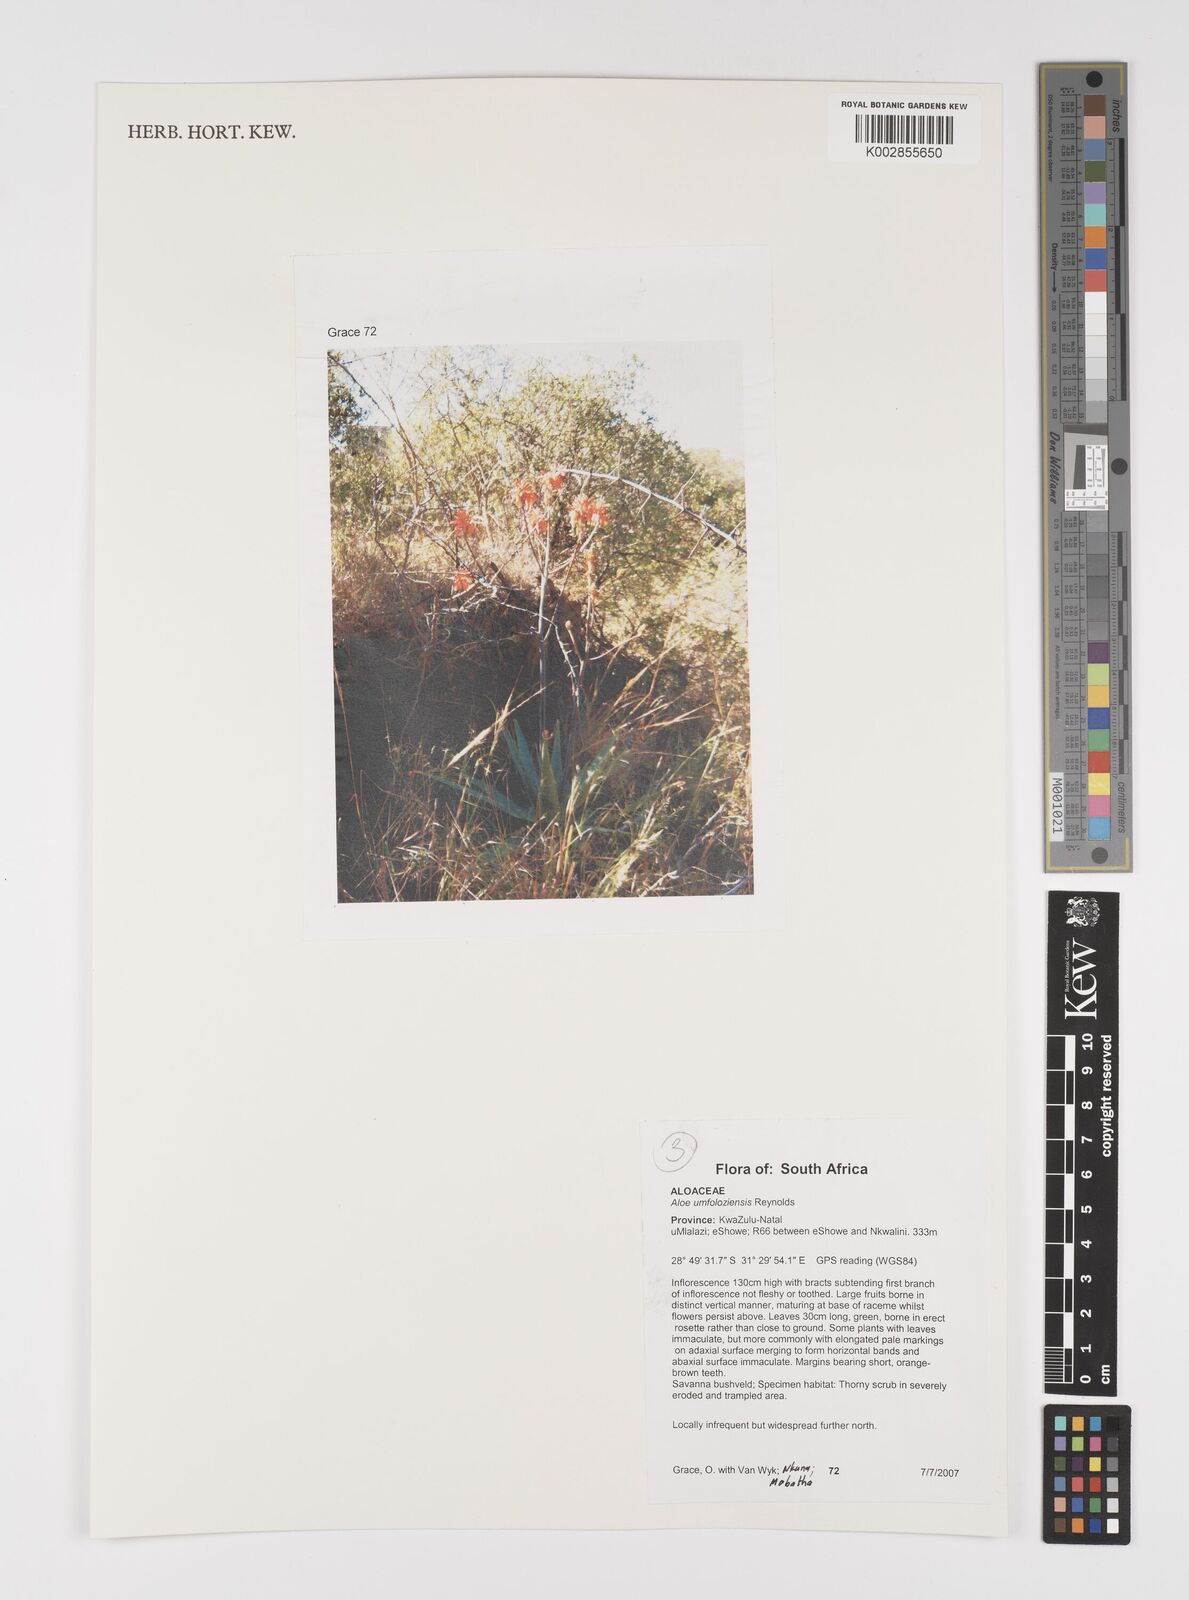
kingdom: Plantae
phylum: Tracheophyta
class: Liliopsida
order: Asparagales
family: Asphodelaceae
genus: Aloe
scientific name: Aloe umfoloziensis
